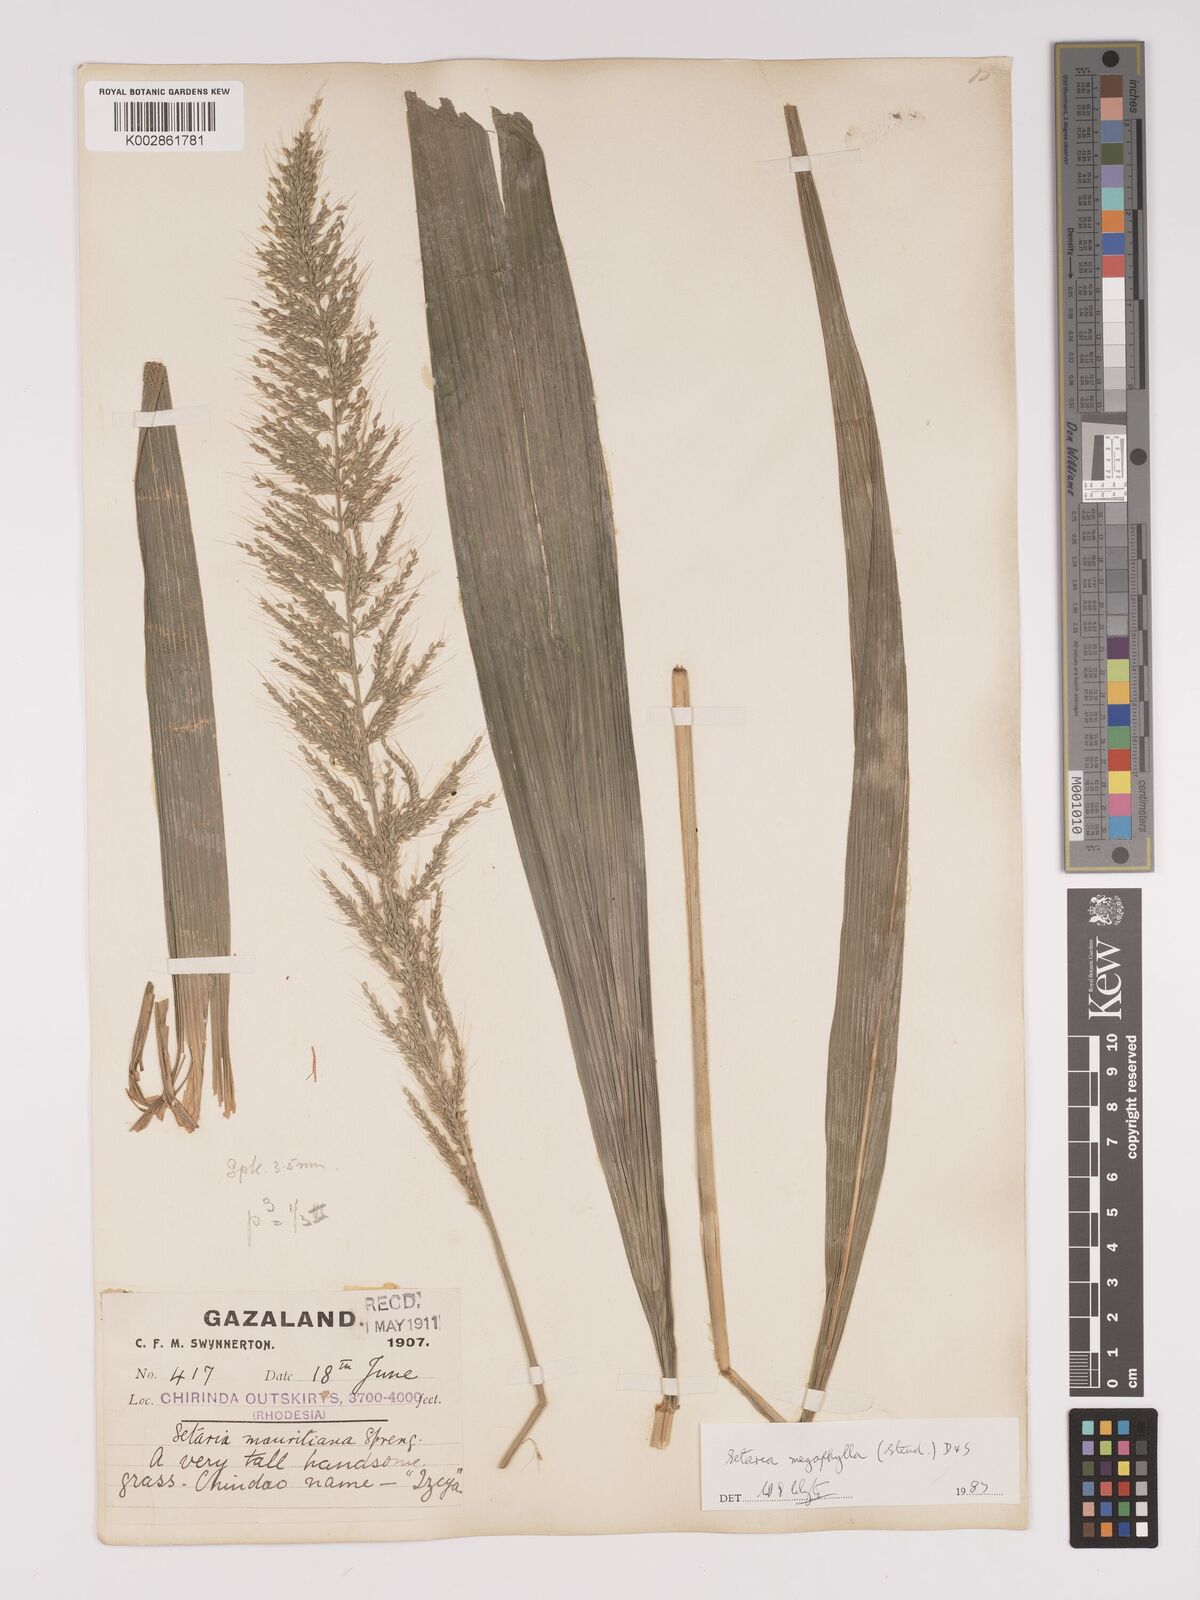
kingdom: Plantae
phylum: Tracheophyta
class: Liliopsida
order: Poales
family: Poaceae
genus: Setaria
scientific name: Setaria megaphylla
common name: Bigleaf bristlegrass
